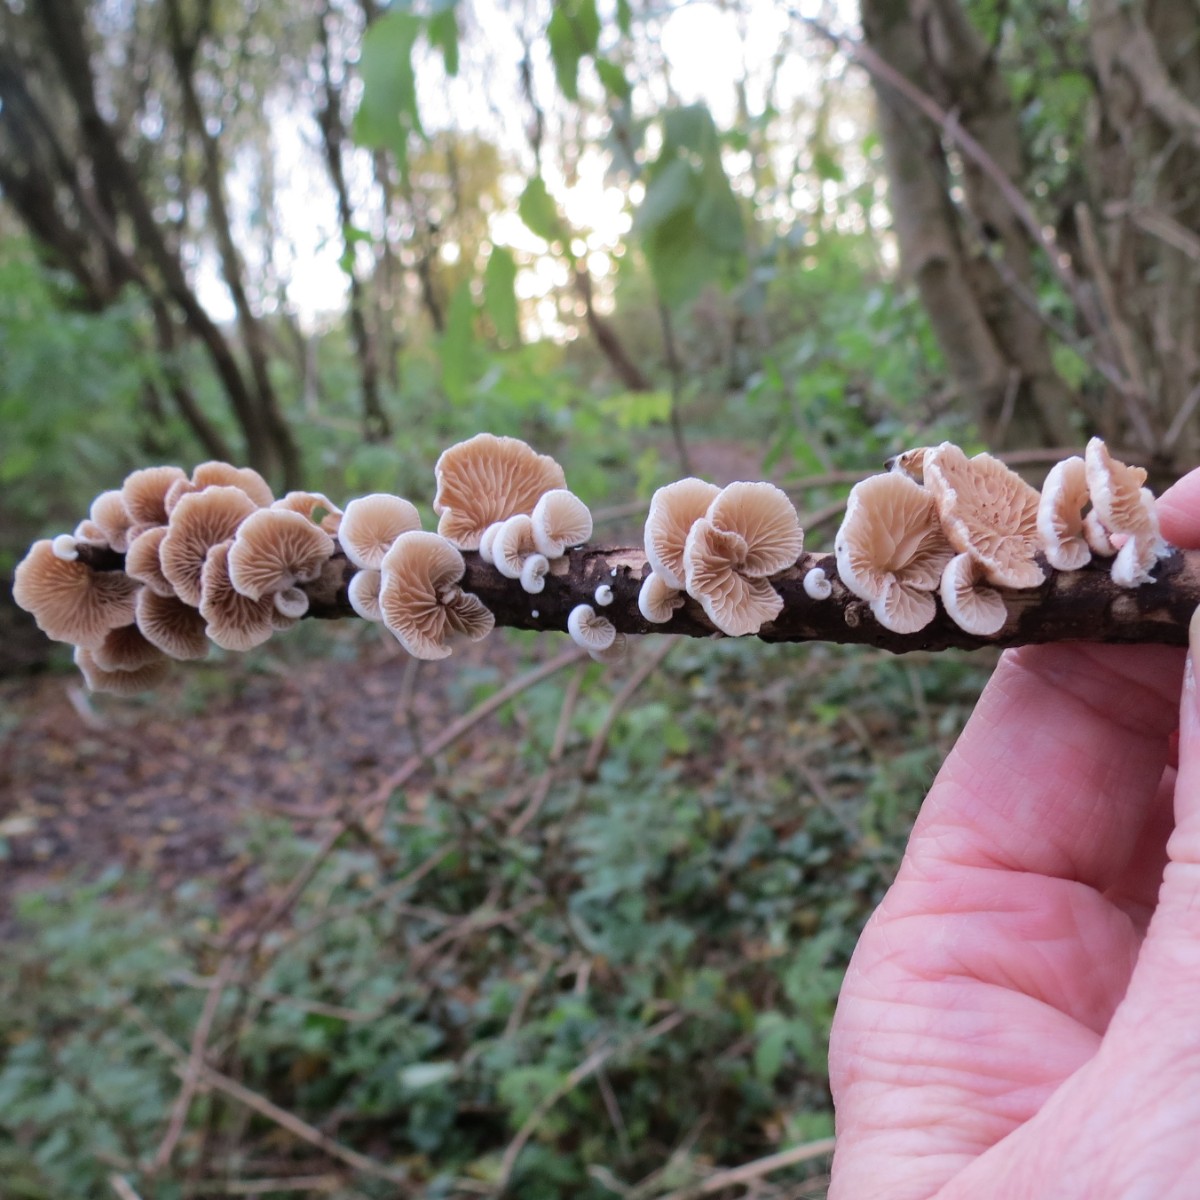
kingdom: Fungi
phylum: Basidiomycota
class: Agaricomycetes
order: Agaricales
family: Crepidotaceae
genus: Crepidotus
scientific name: Crepidotus
